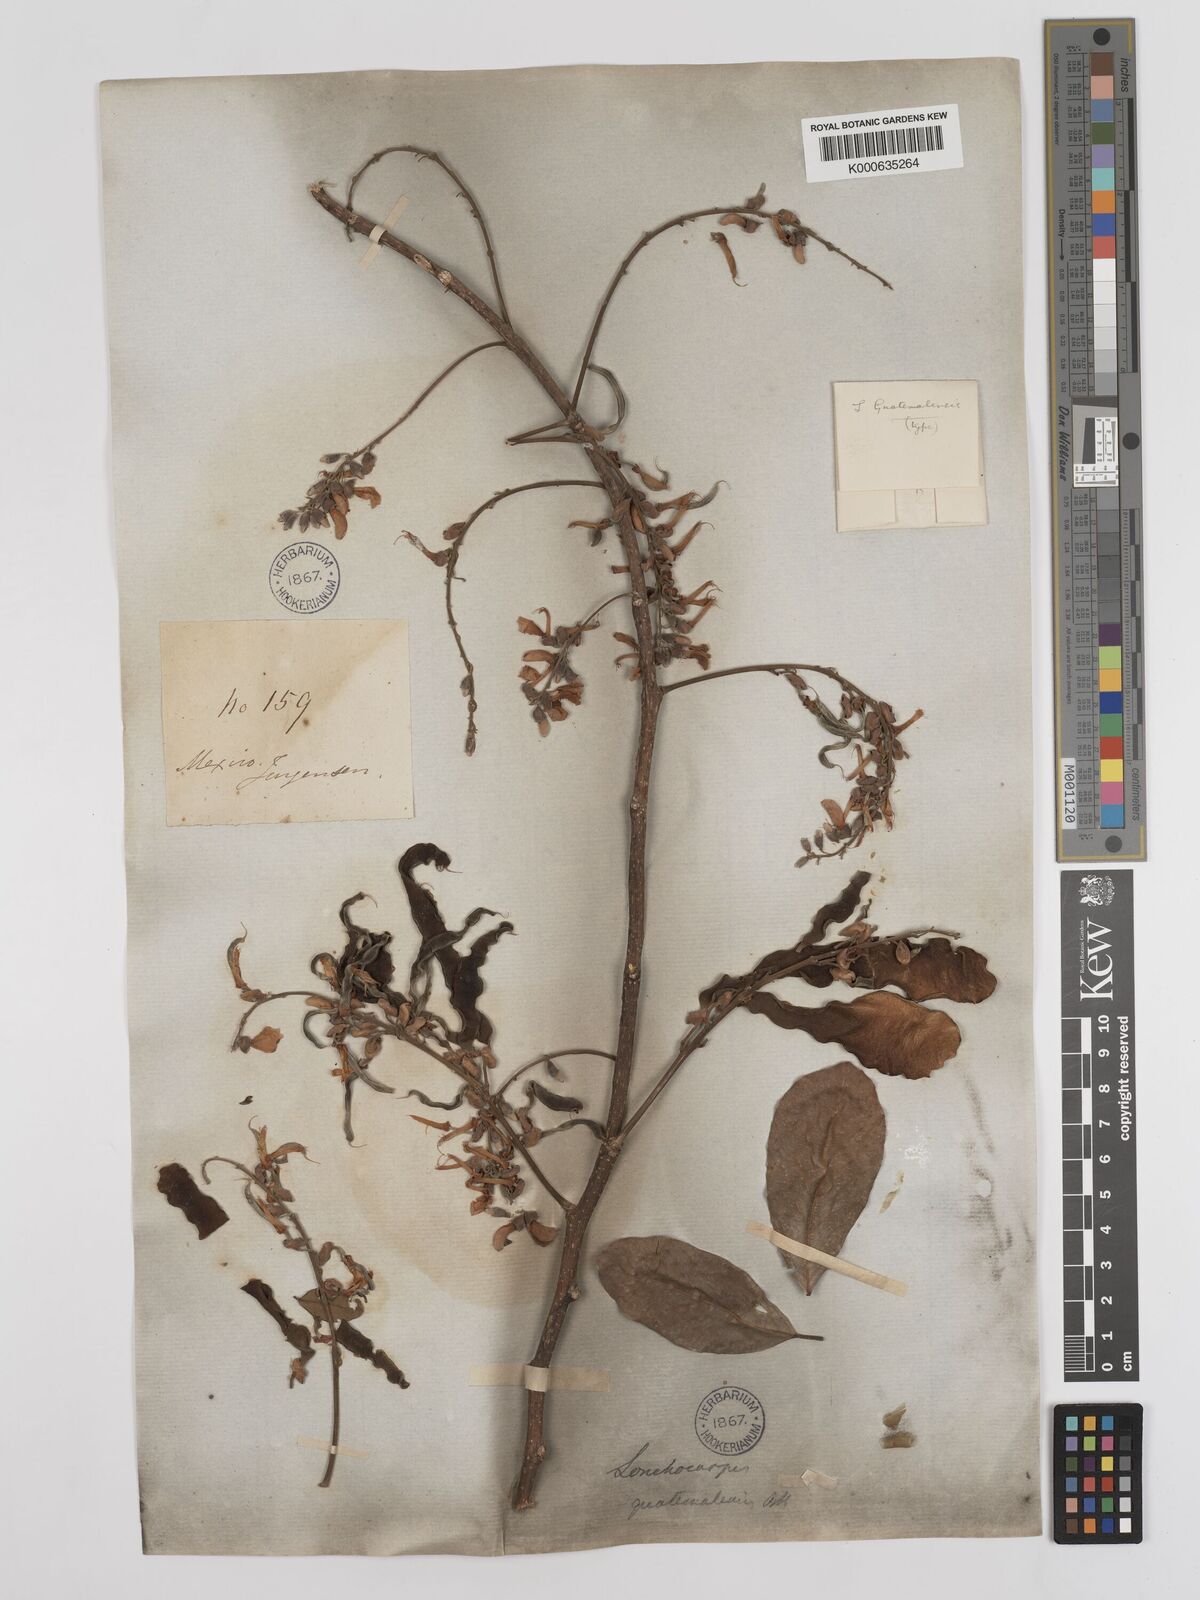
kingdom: Plantae
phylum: Tracheophyta
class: Magnoliopsida
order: Fabales
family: Fabaceae
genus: Lonchocarpus
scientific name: Lonchocarpus guatemalensis
